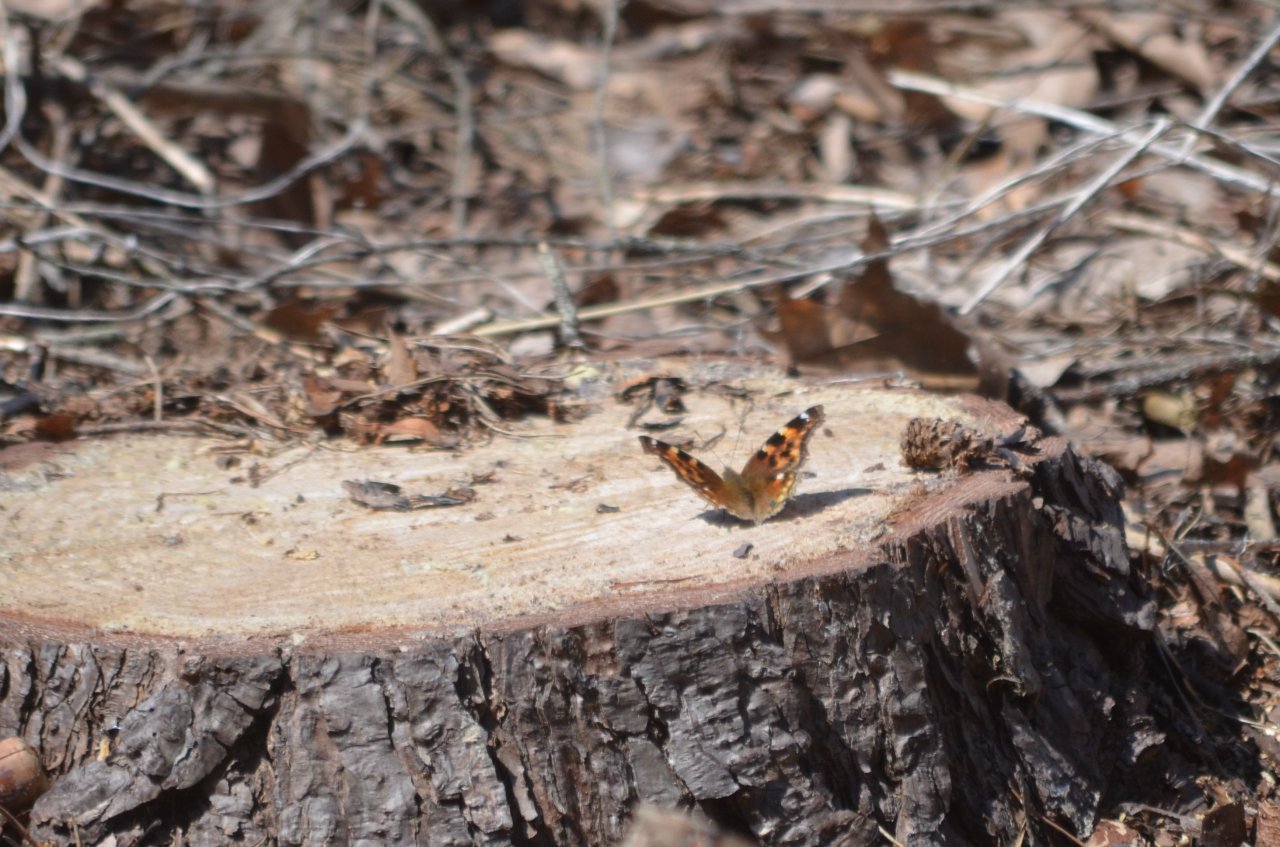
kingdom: Animalia
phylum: Arthropoda
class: Insecta
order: Lepidoptera
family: Nymphalidae
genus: Polygonia
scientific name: Polygonia vaualbum
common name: Compton Tortoiseshell
